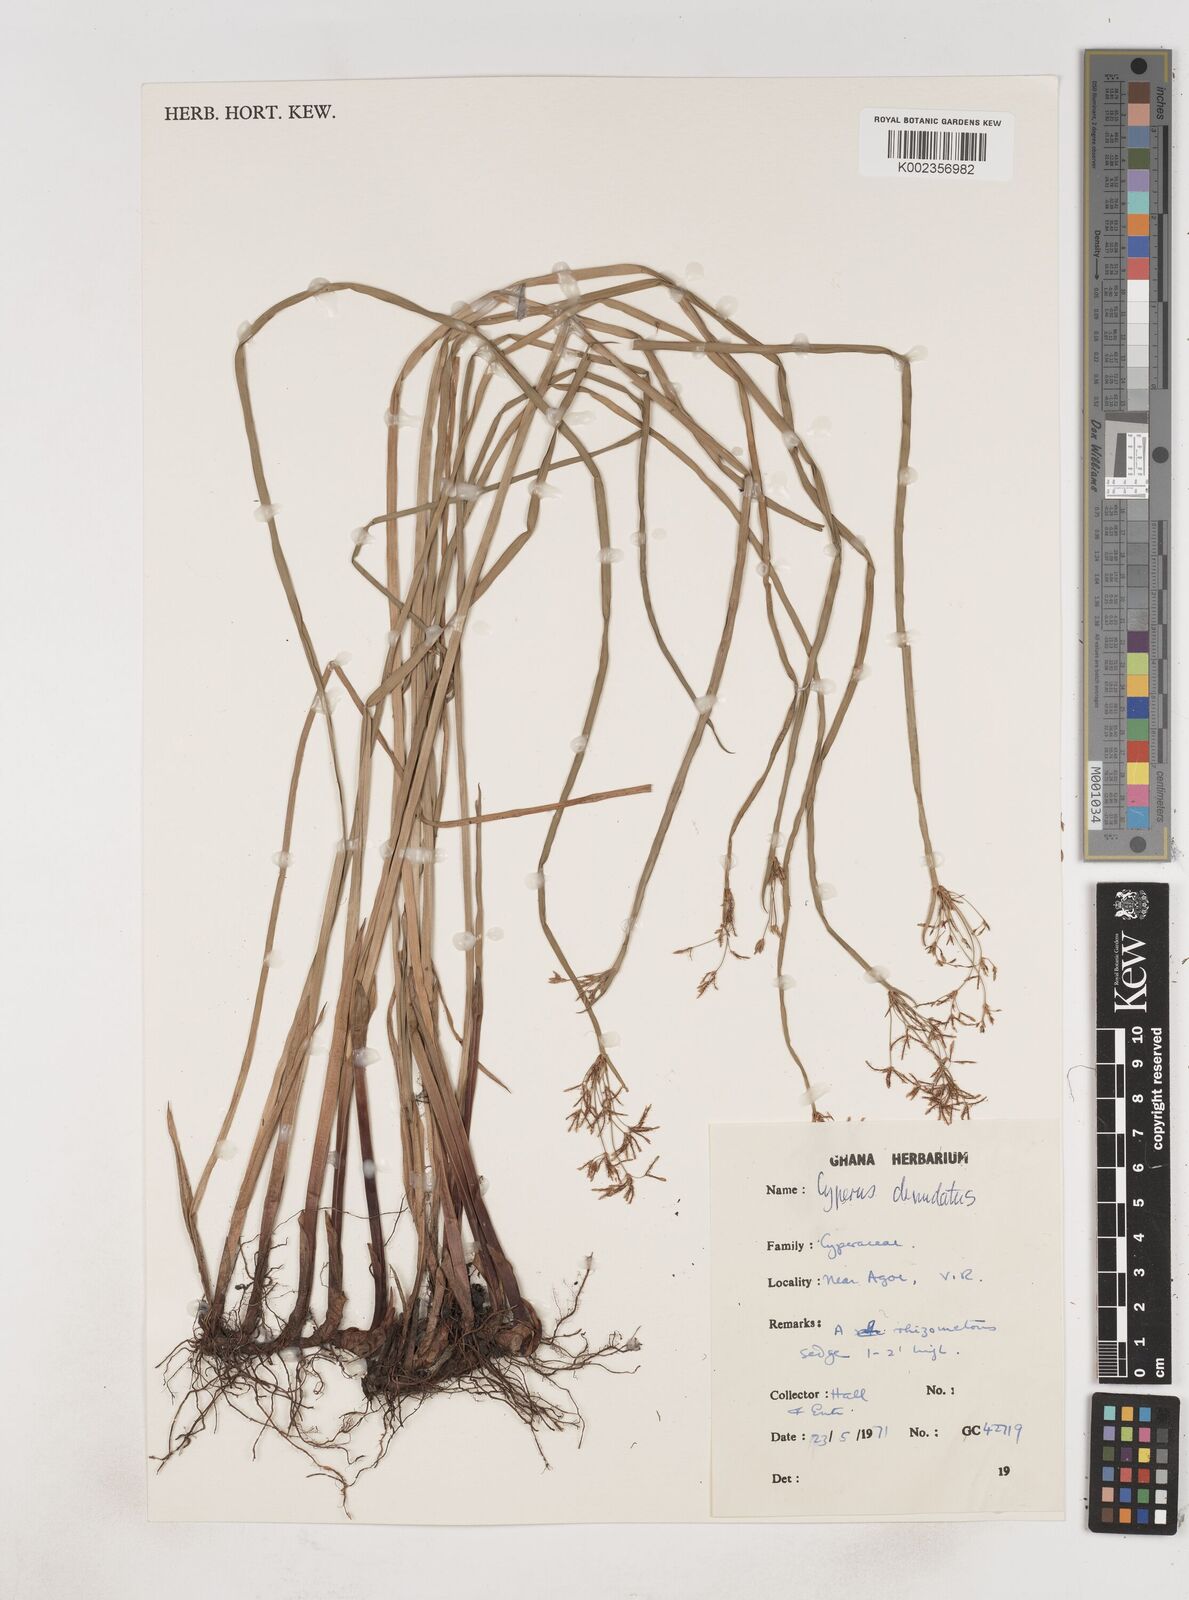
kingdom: Plantae
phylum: Tracheophyta
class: Liliopsida
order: Poales
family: Cyperaceae
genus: Cyperus
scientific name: Cyperus denudatus
